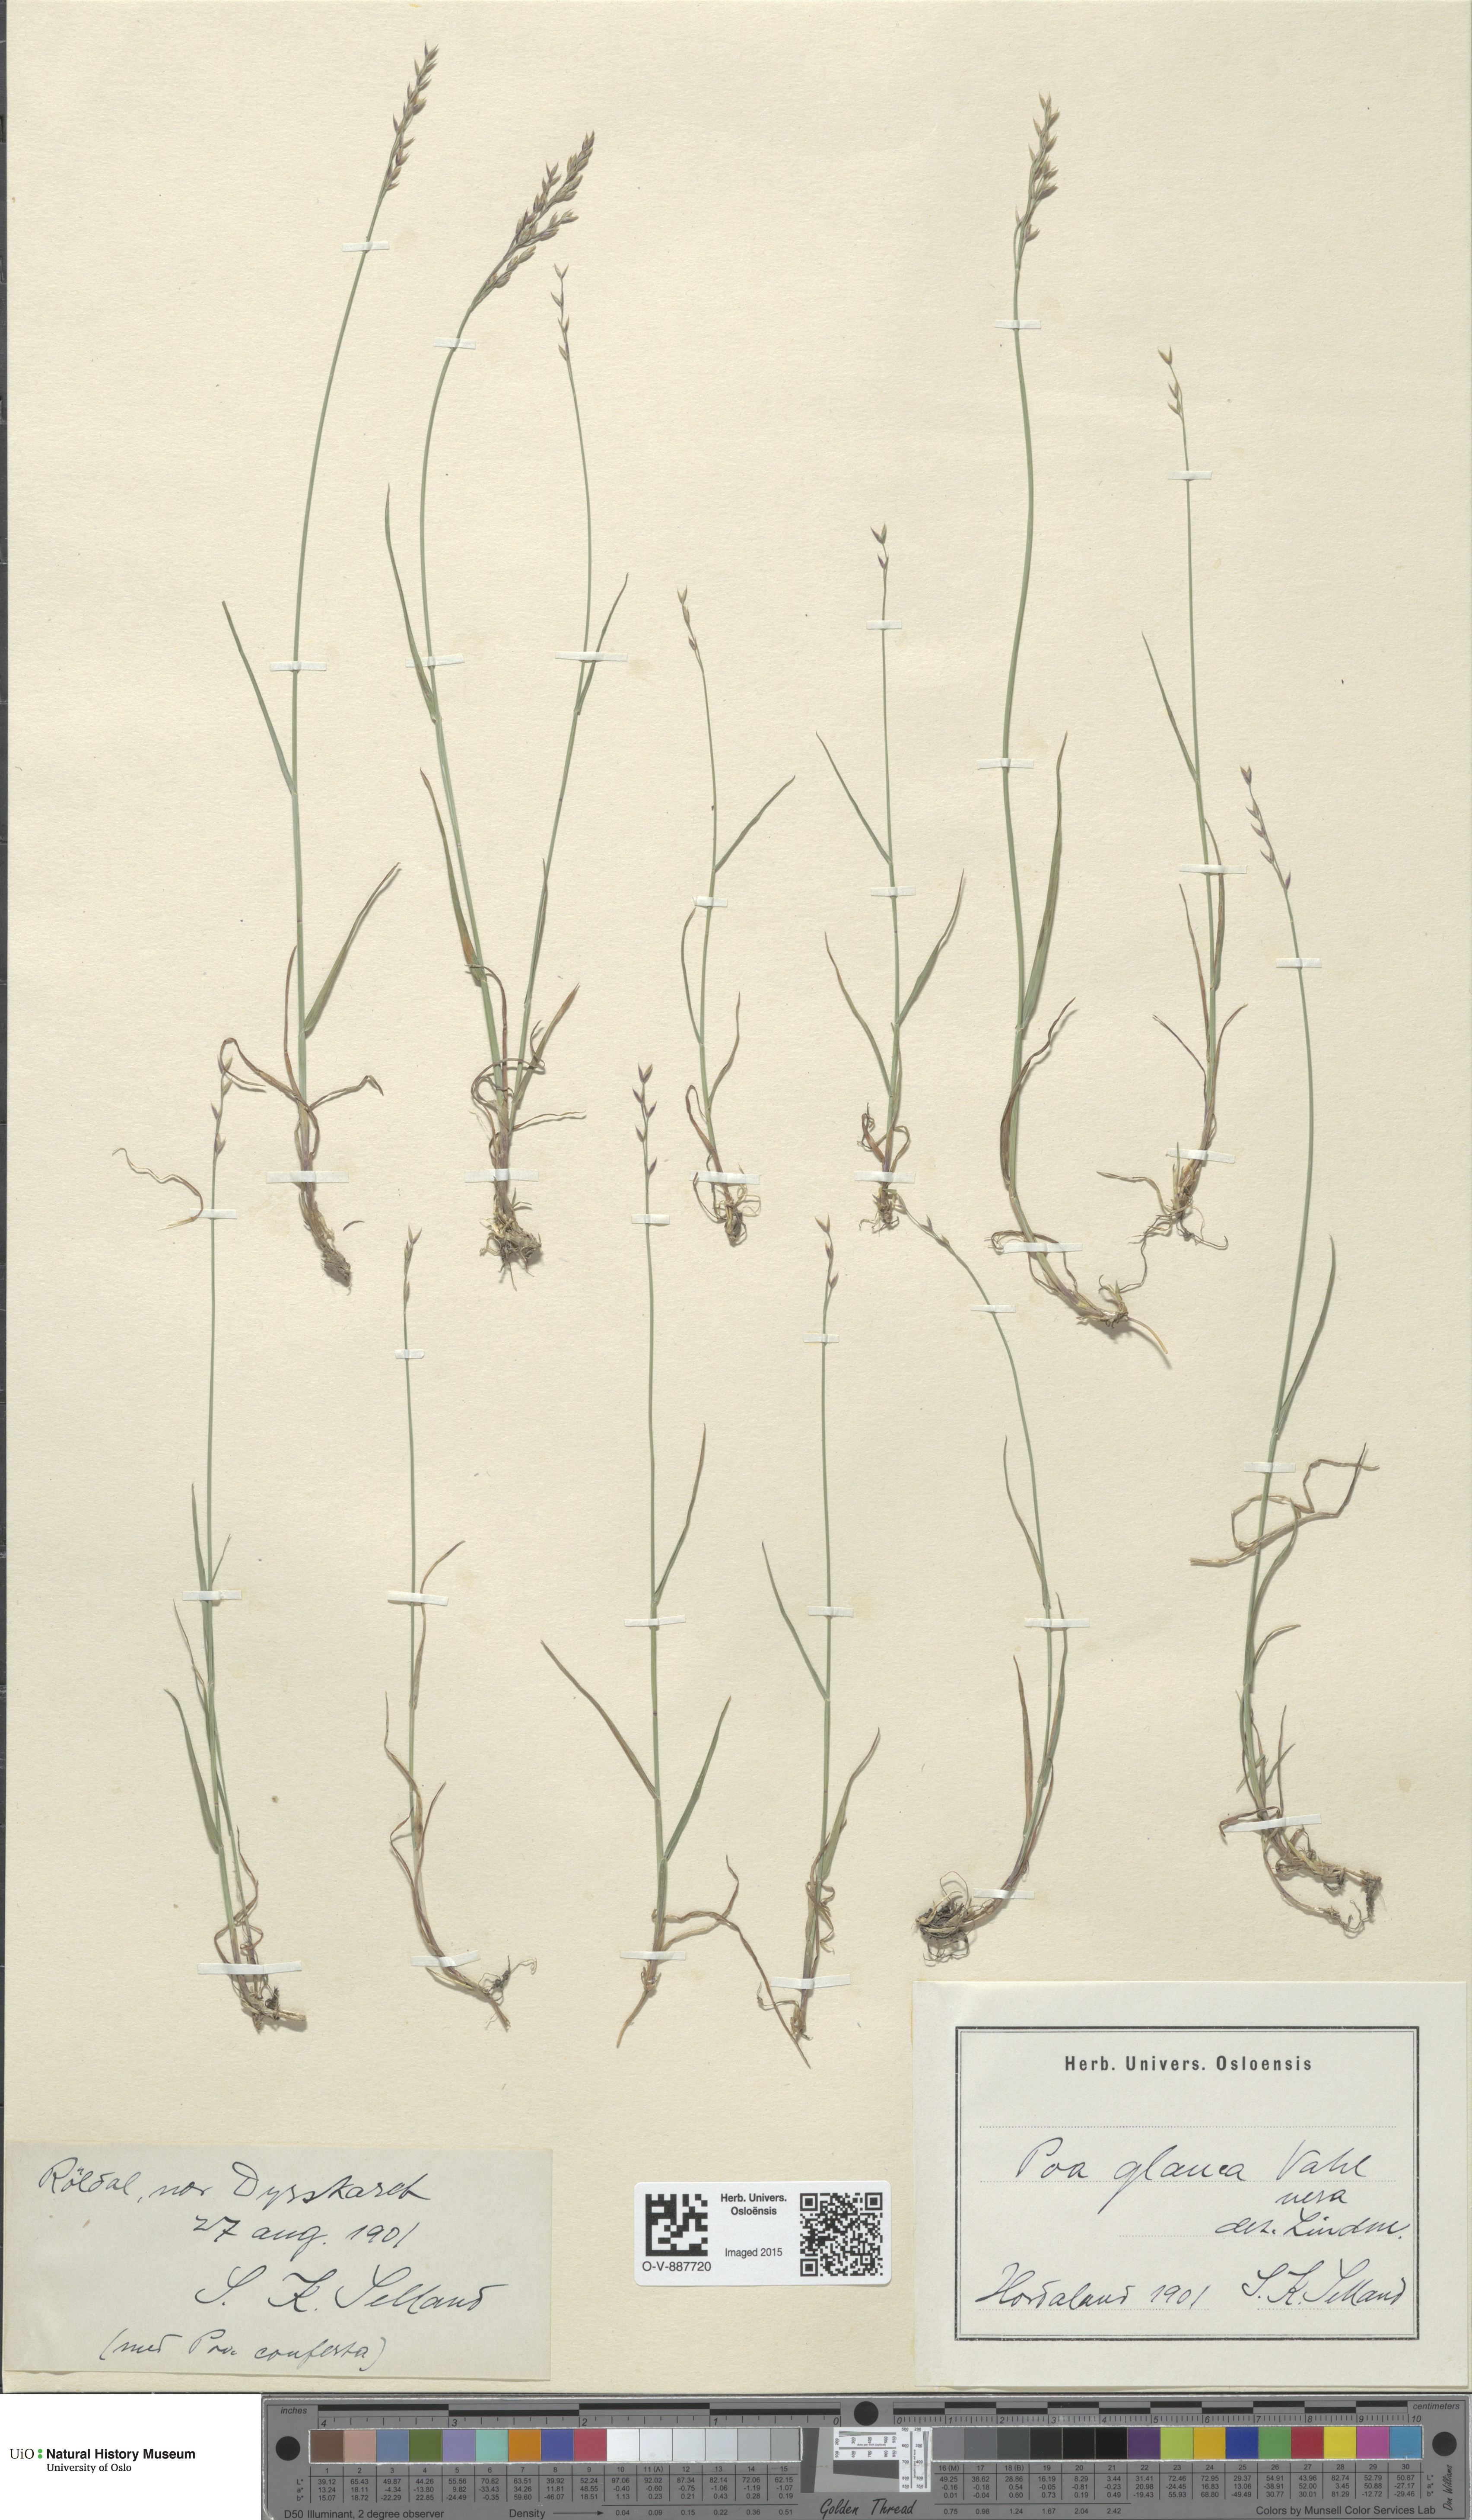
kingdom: Plantae
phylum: Tracheophyta
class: Liliopsida
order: Poales
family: Poaceae
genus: Poa
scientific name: Poa glauca
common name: Glaucous bluegrass
